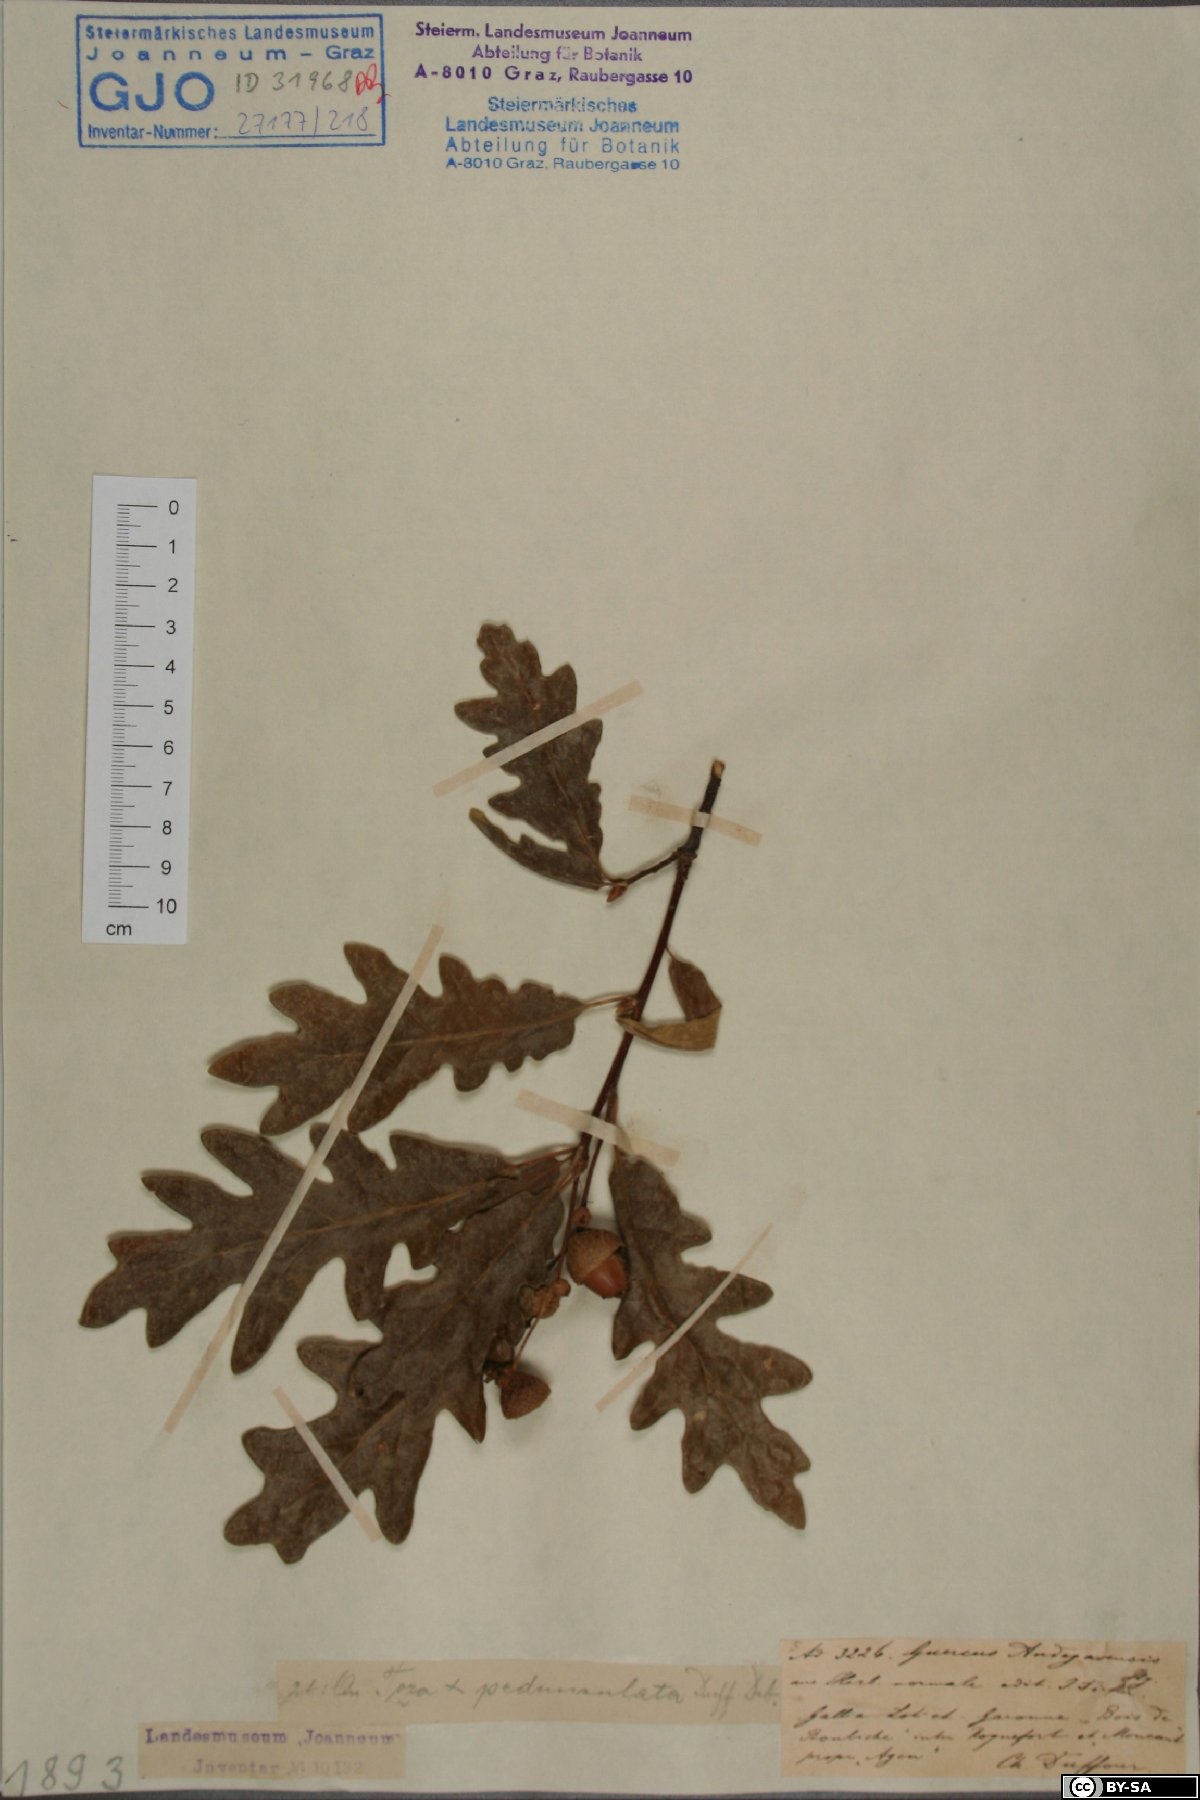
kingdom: Plantae
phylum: Tracheophyta
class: Magnoliopsida
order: Fagales
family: Fagaceae
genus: Quercus
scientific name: Quercus andegavensis
